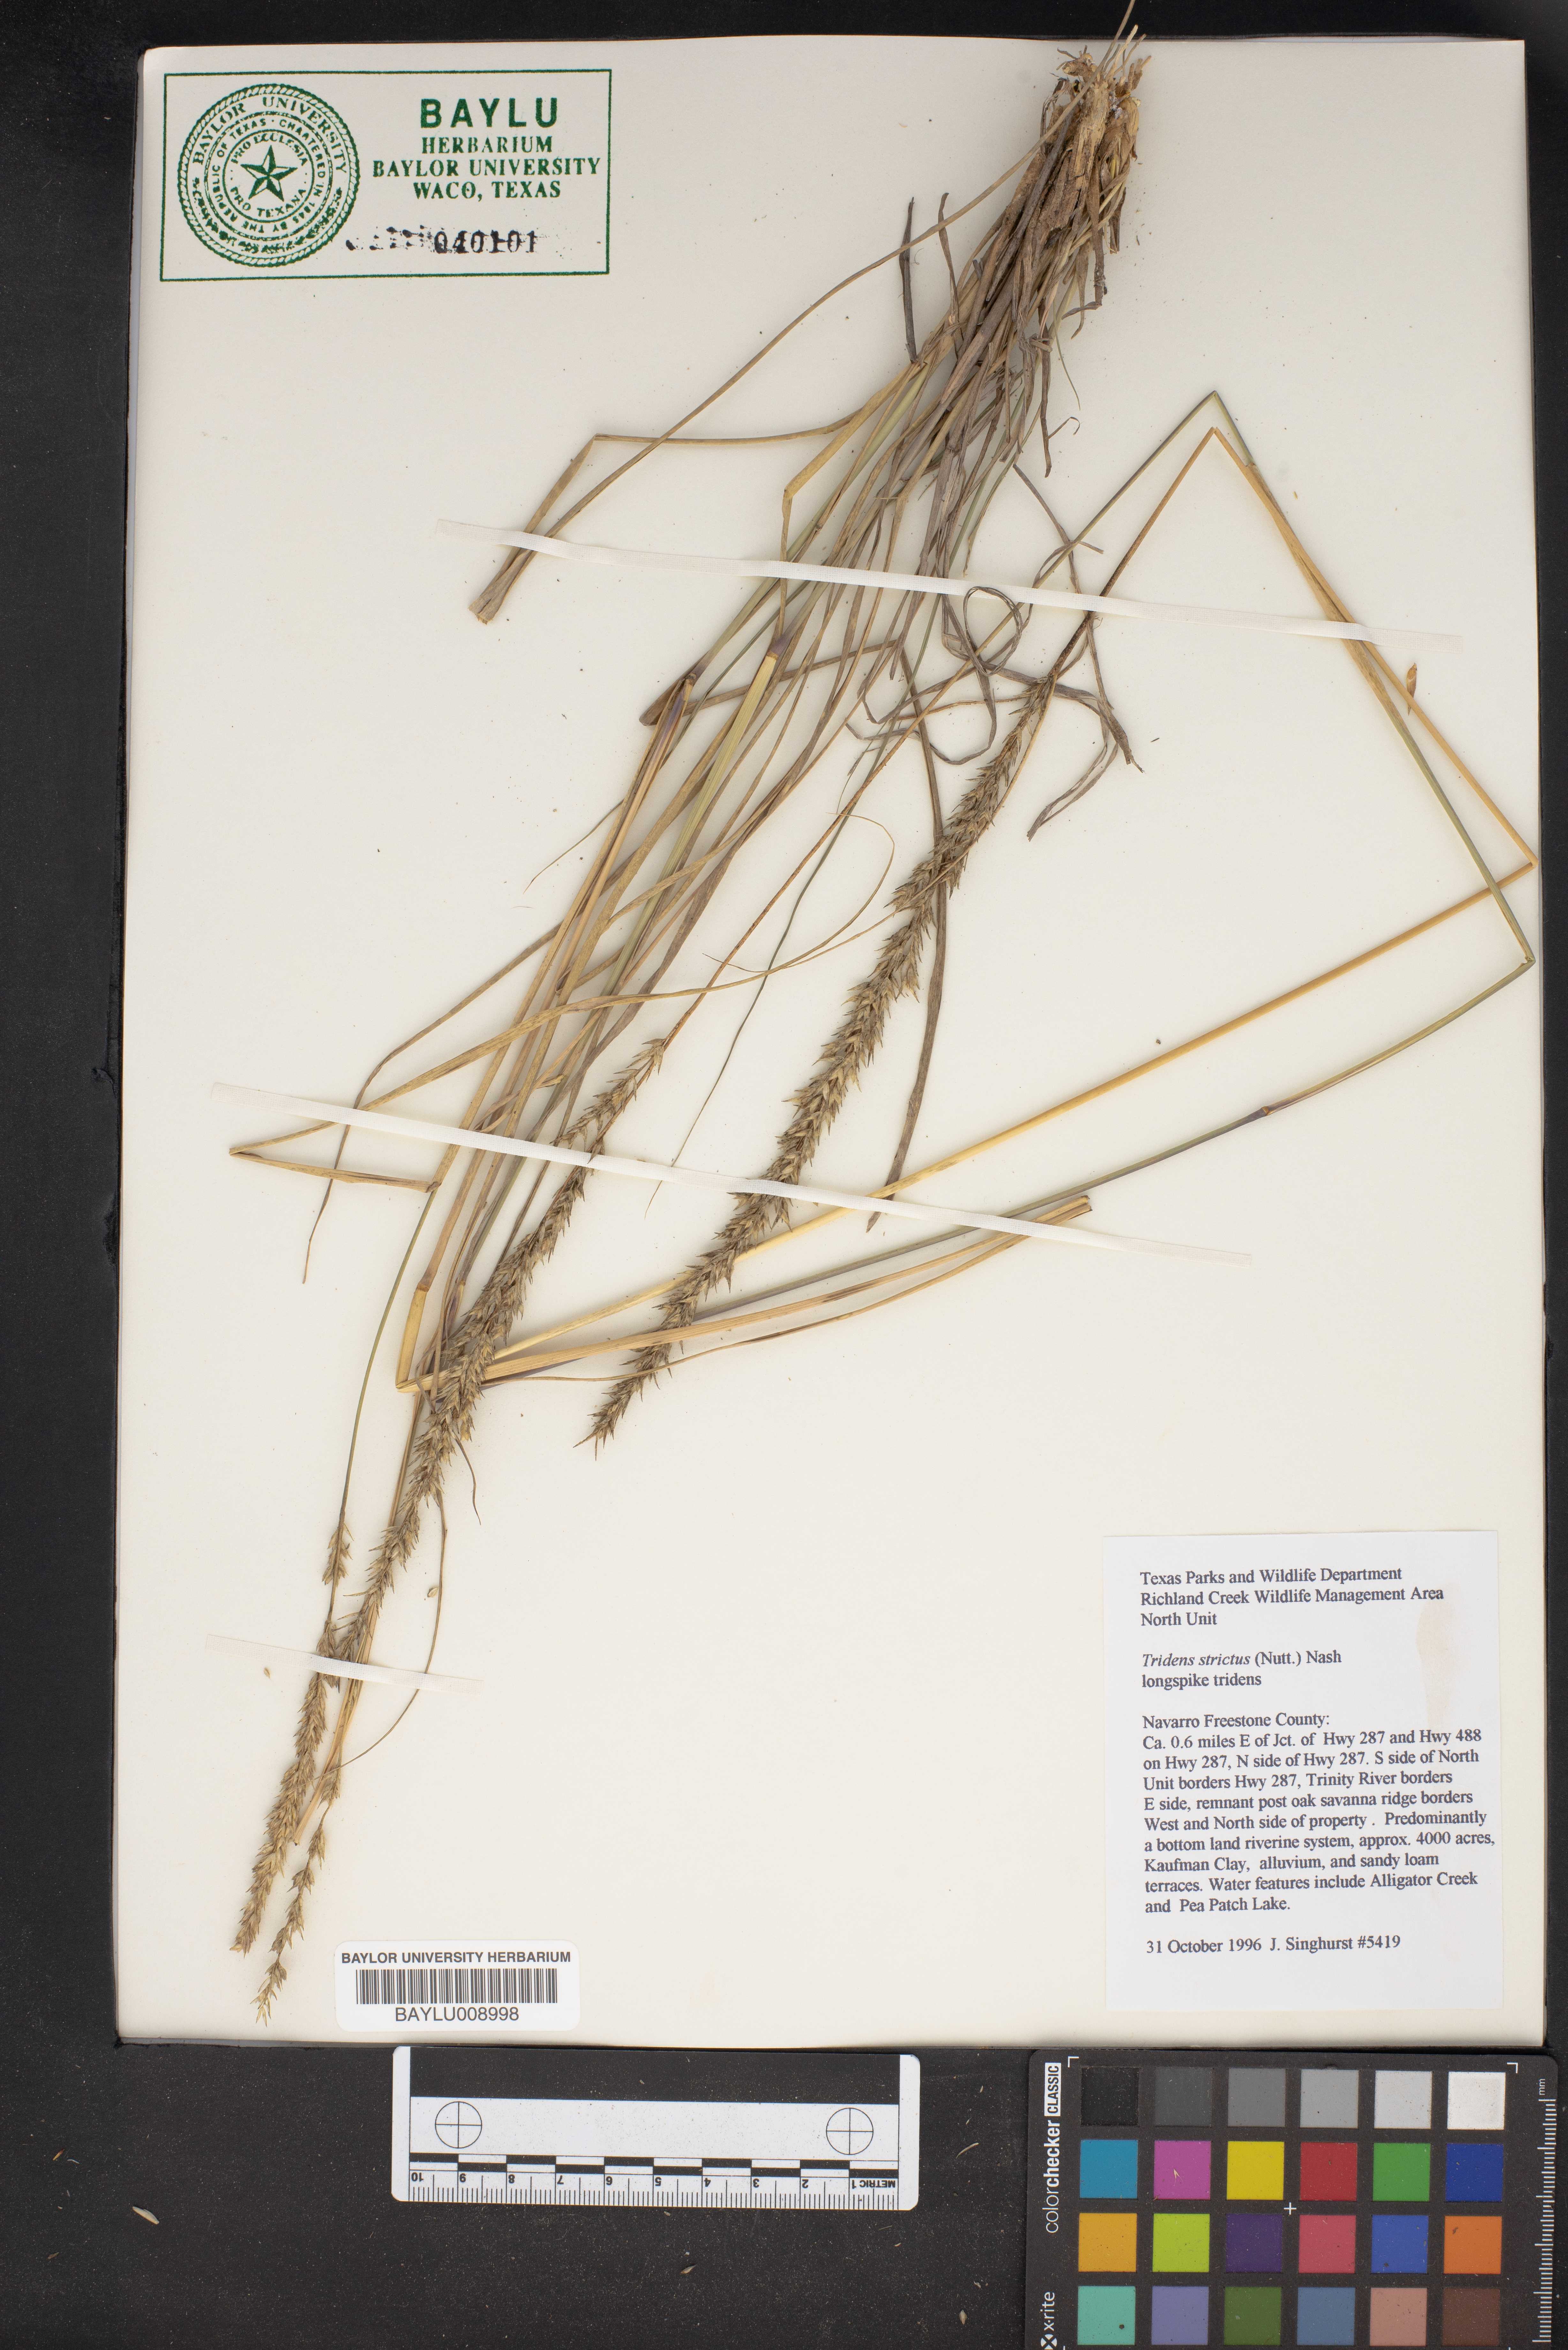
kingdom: Plantae
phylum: Tracheophyta
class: Liliopsida
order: Poales
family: Poaceae
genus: Tridens
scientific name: Tridens strictus
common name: Long-spike tridens
